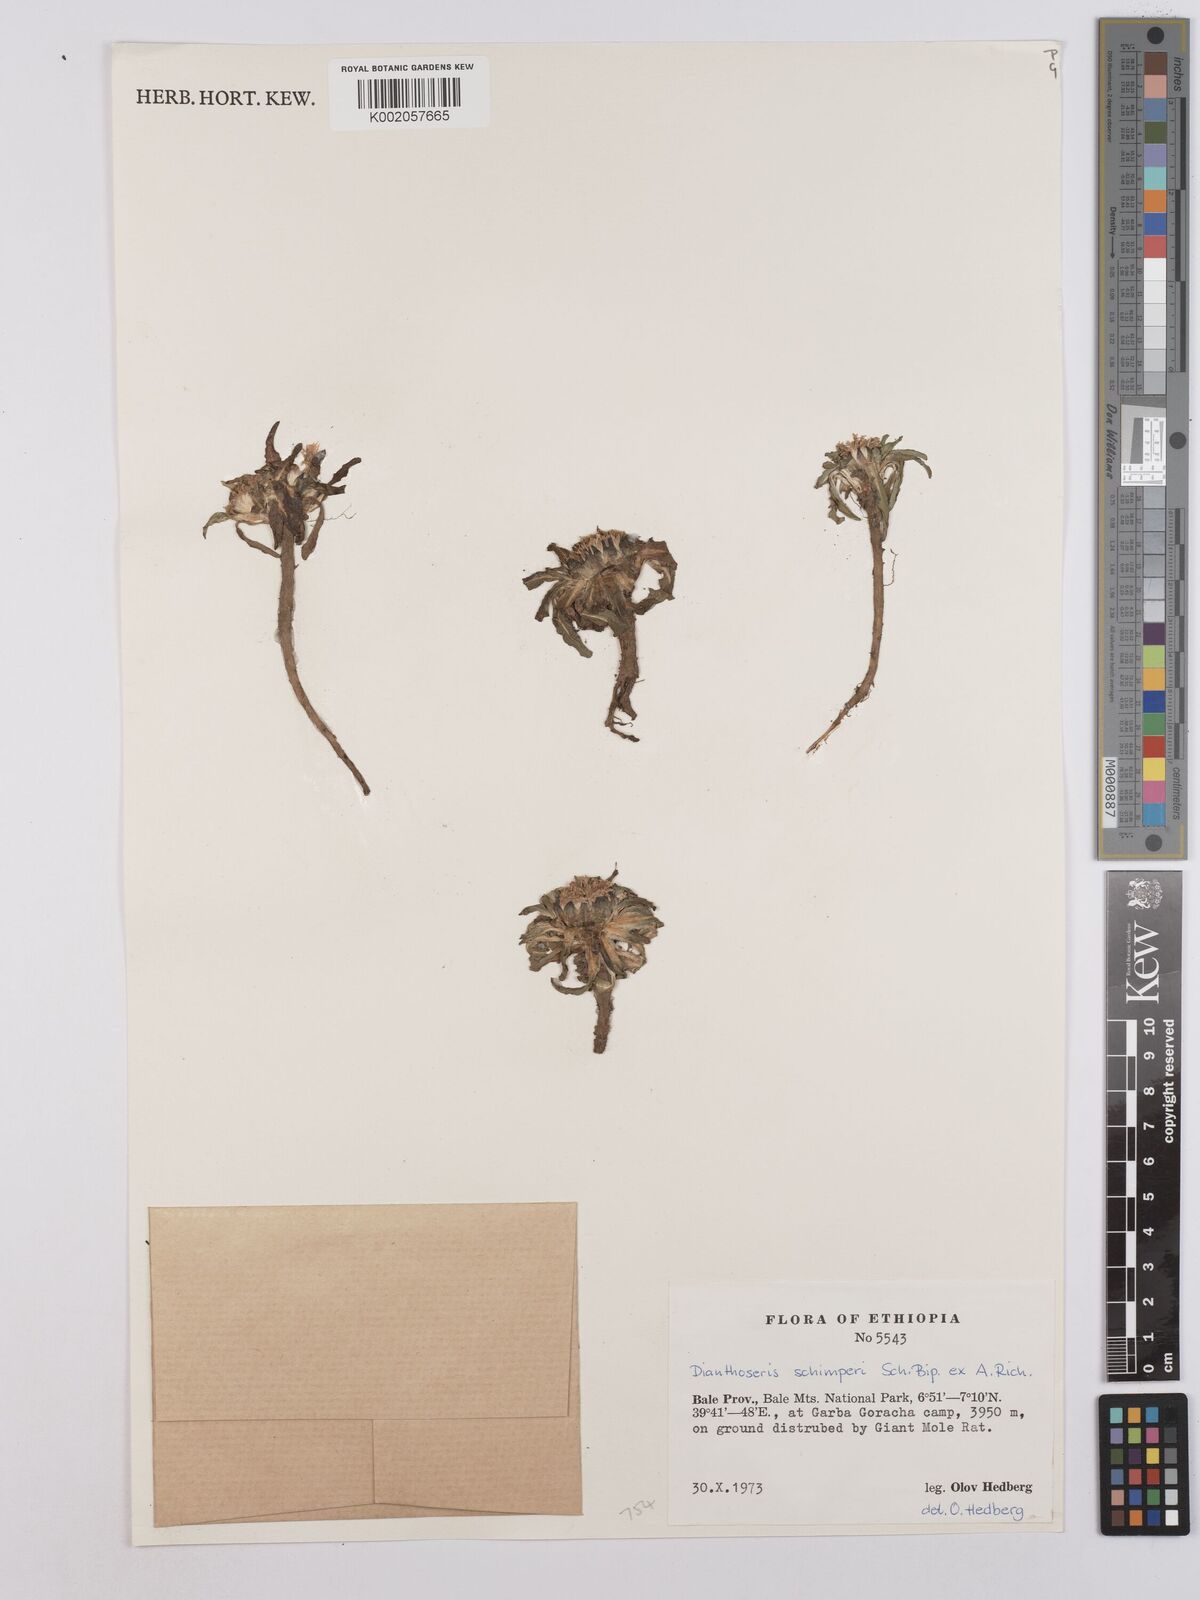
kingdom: Plantae
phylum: Tracheophyta
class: Magnoliopsida
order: Asterales
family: Asteraceae
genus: Crepis
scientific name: Crepis foetida
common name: Stinking hawk's-beard
